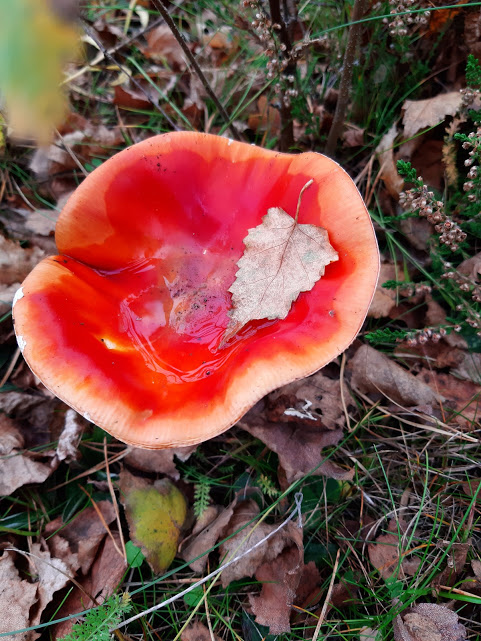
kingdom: Fungi
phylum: Basidiomycota
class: Agaricomycetes
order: Agaricales
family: Amanitaceae
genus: Amanita
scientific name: Amanita muscaria
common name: rød fluesvamp
